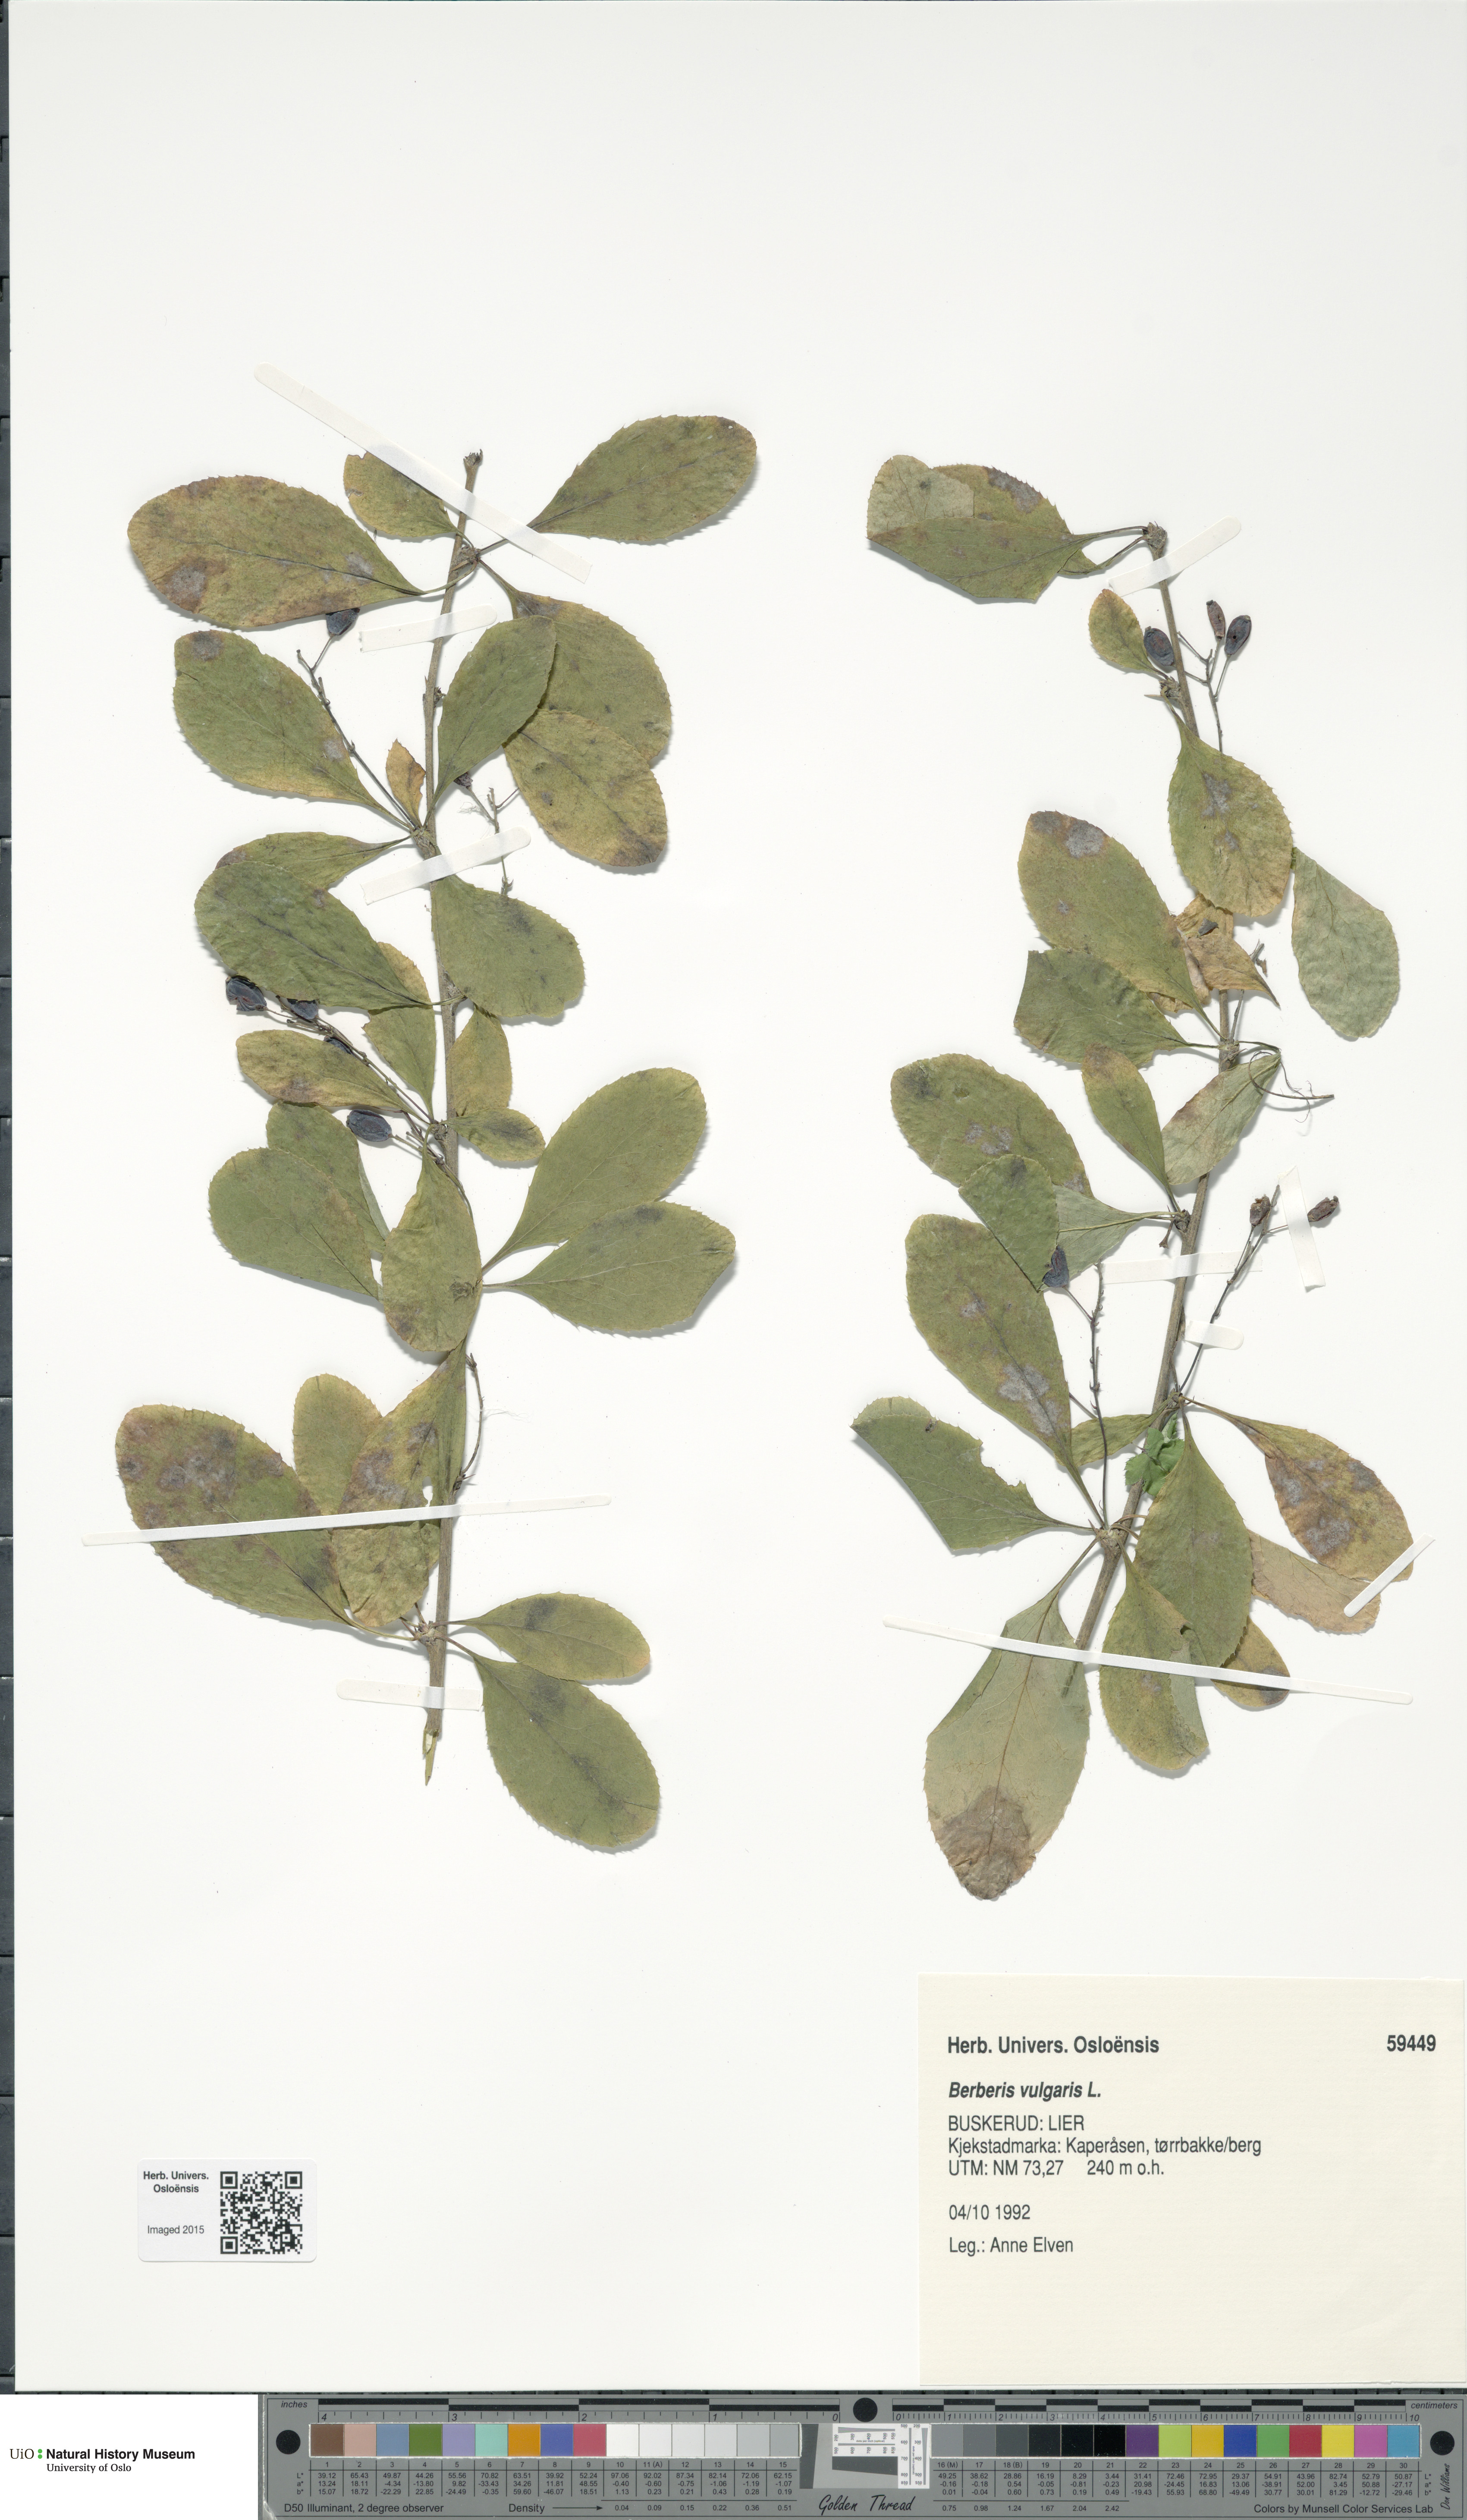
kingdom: Plantae
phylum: Tracheophyta
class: Magnoliopsida
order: Ranunculales
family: Berberidaceae
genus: Berberis
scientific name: Berberis vulgaris
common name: Barberry
